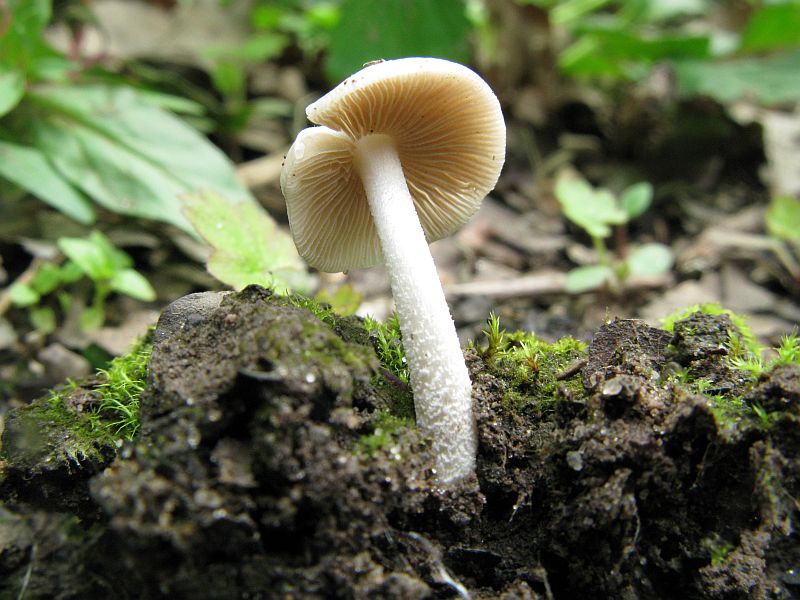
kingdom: Fungi
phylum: Basidiomycota
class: Agaricomycetes
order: Agaricales
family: Bolbitiaceae
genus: Bolbitius
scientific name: Bolbitius reticulatus
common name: Netted fieldcap
